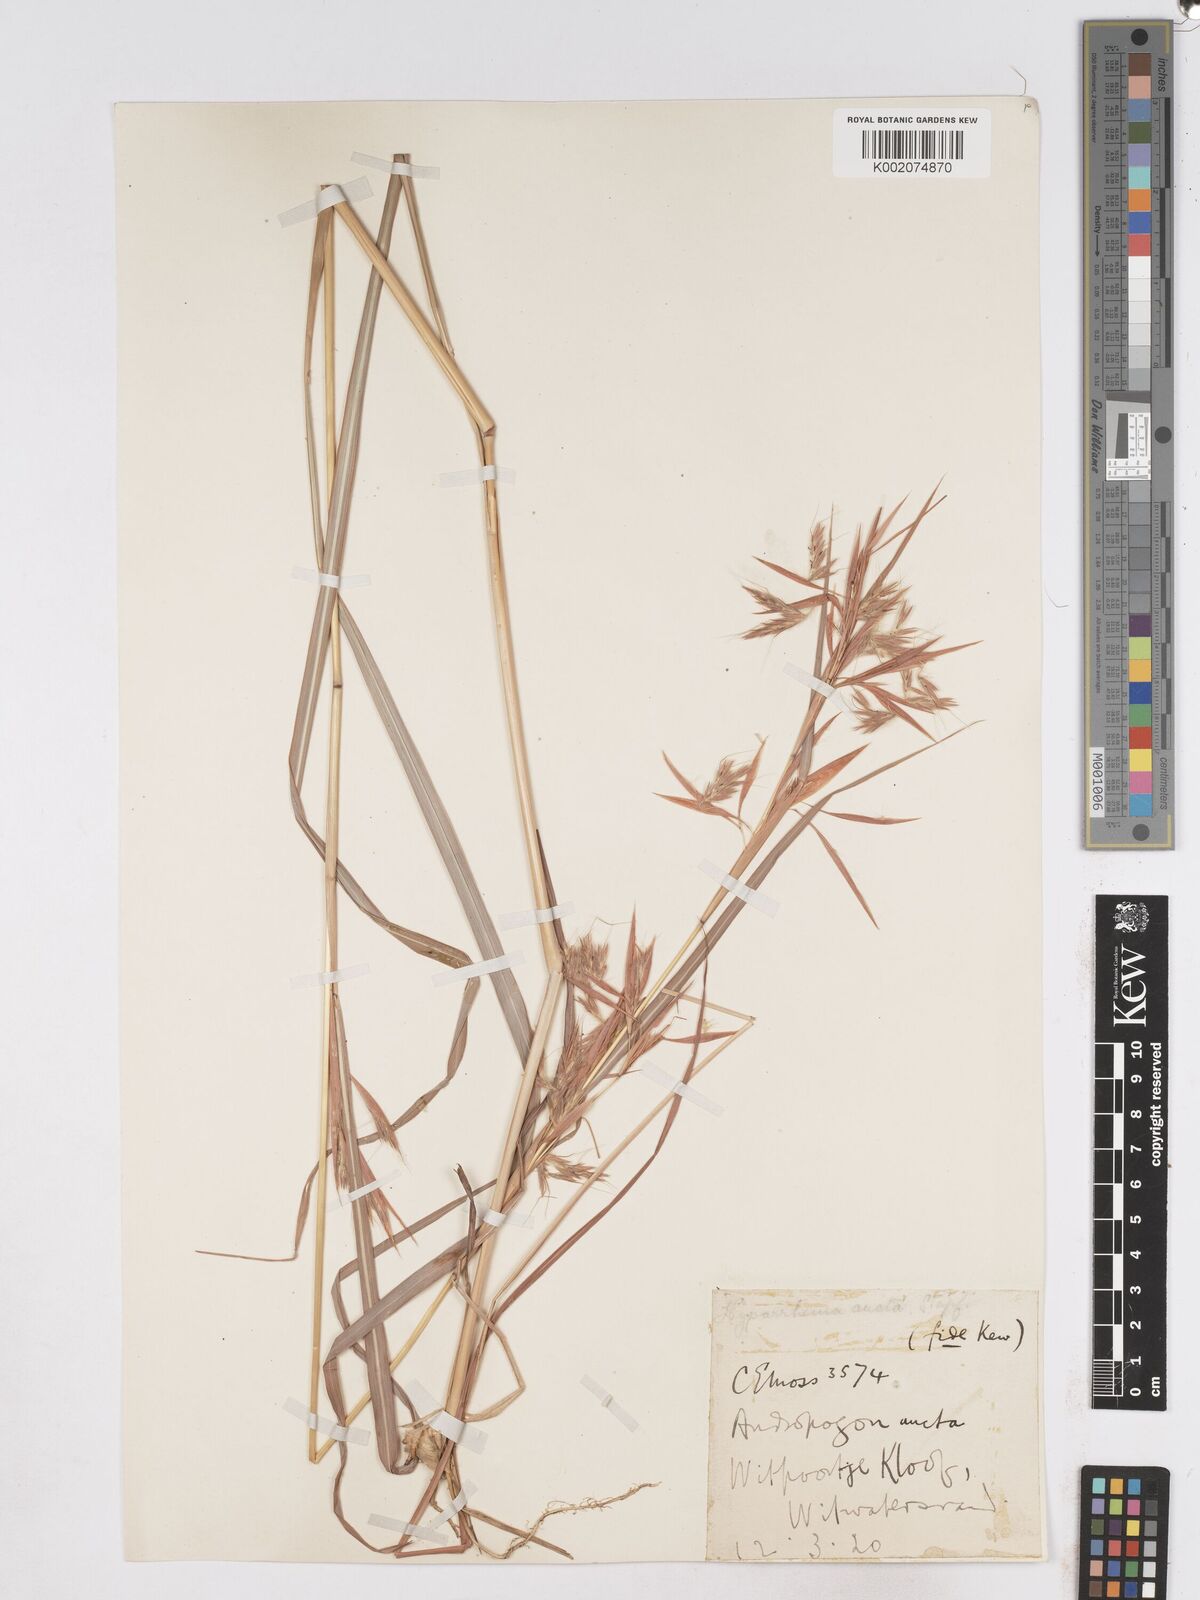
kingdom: Plantae
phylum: Tracheophyta
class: Liliopsida
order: Poales
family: Poaceae
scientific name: Poaceae
